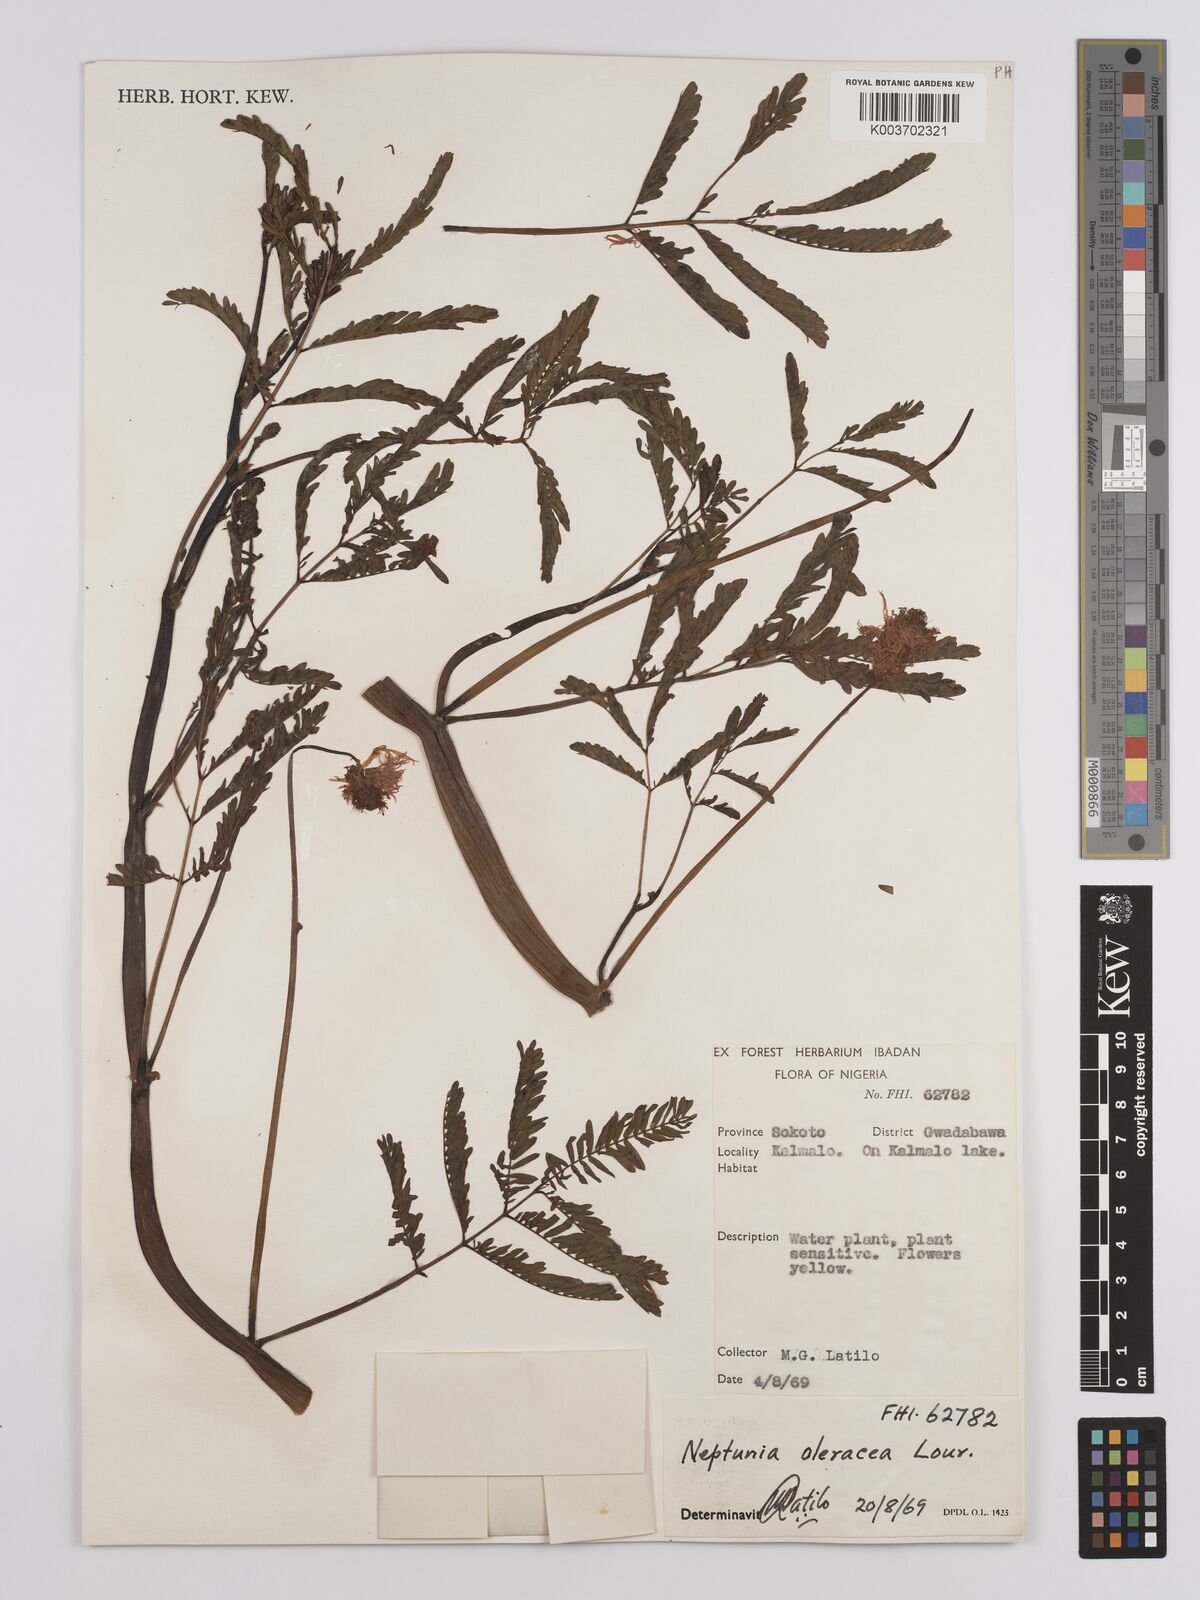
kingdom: Plantae
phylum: Tracheophyta
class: Magnoliopsida
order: Fabales
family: Fabaceae
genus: Neptunia
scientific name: Neptunia prostrata
